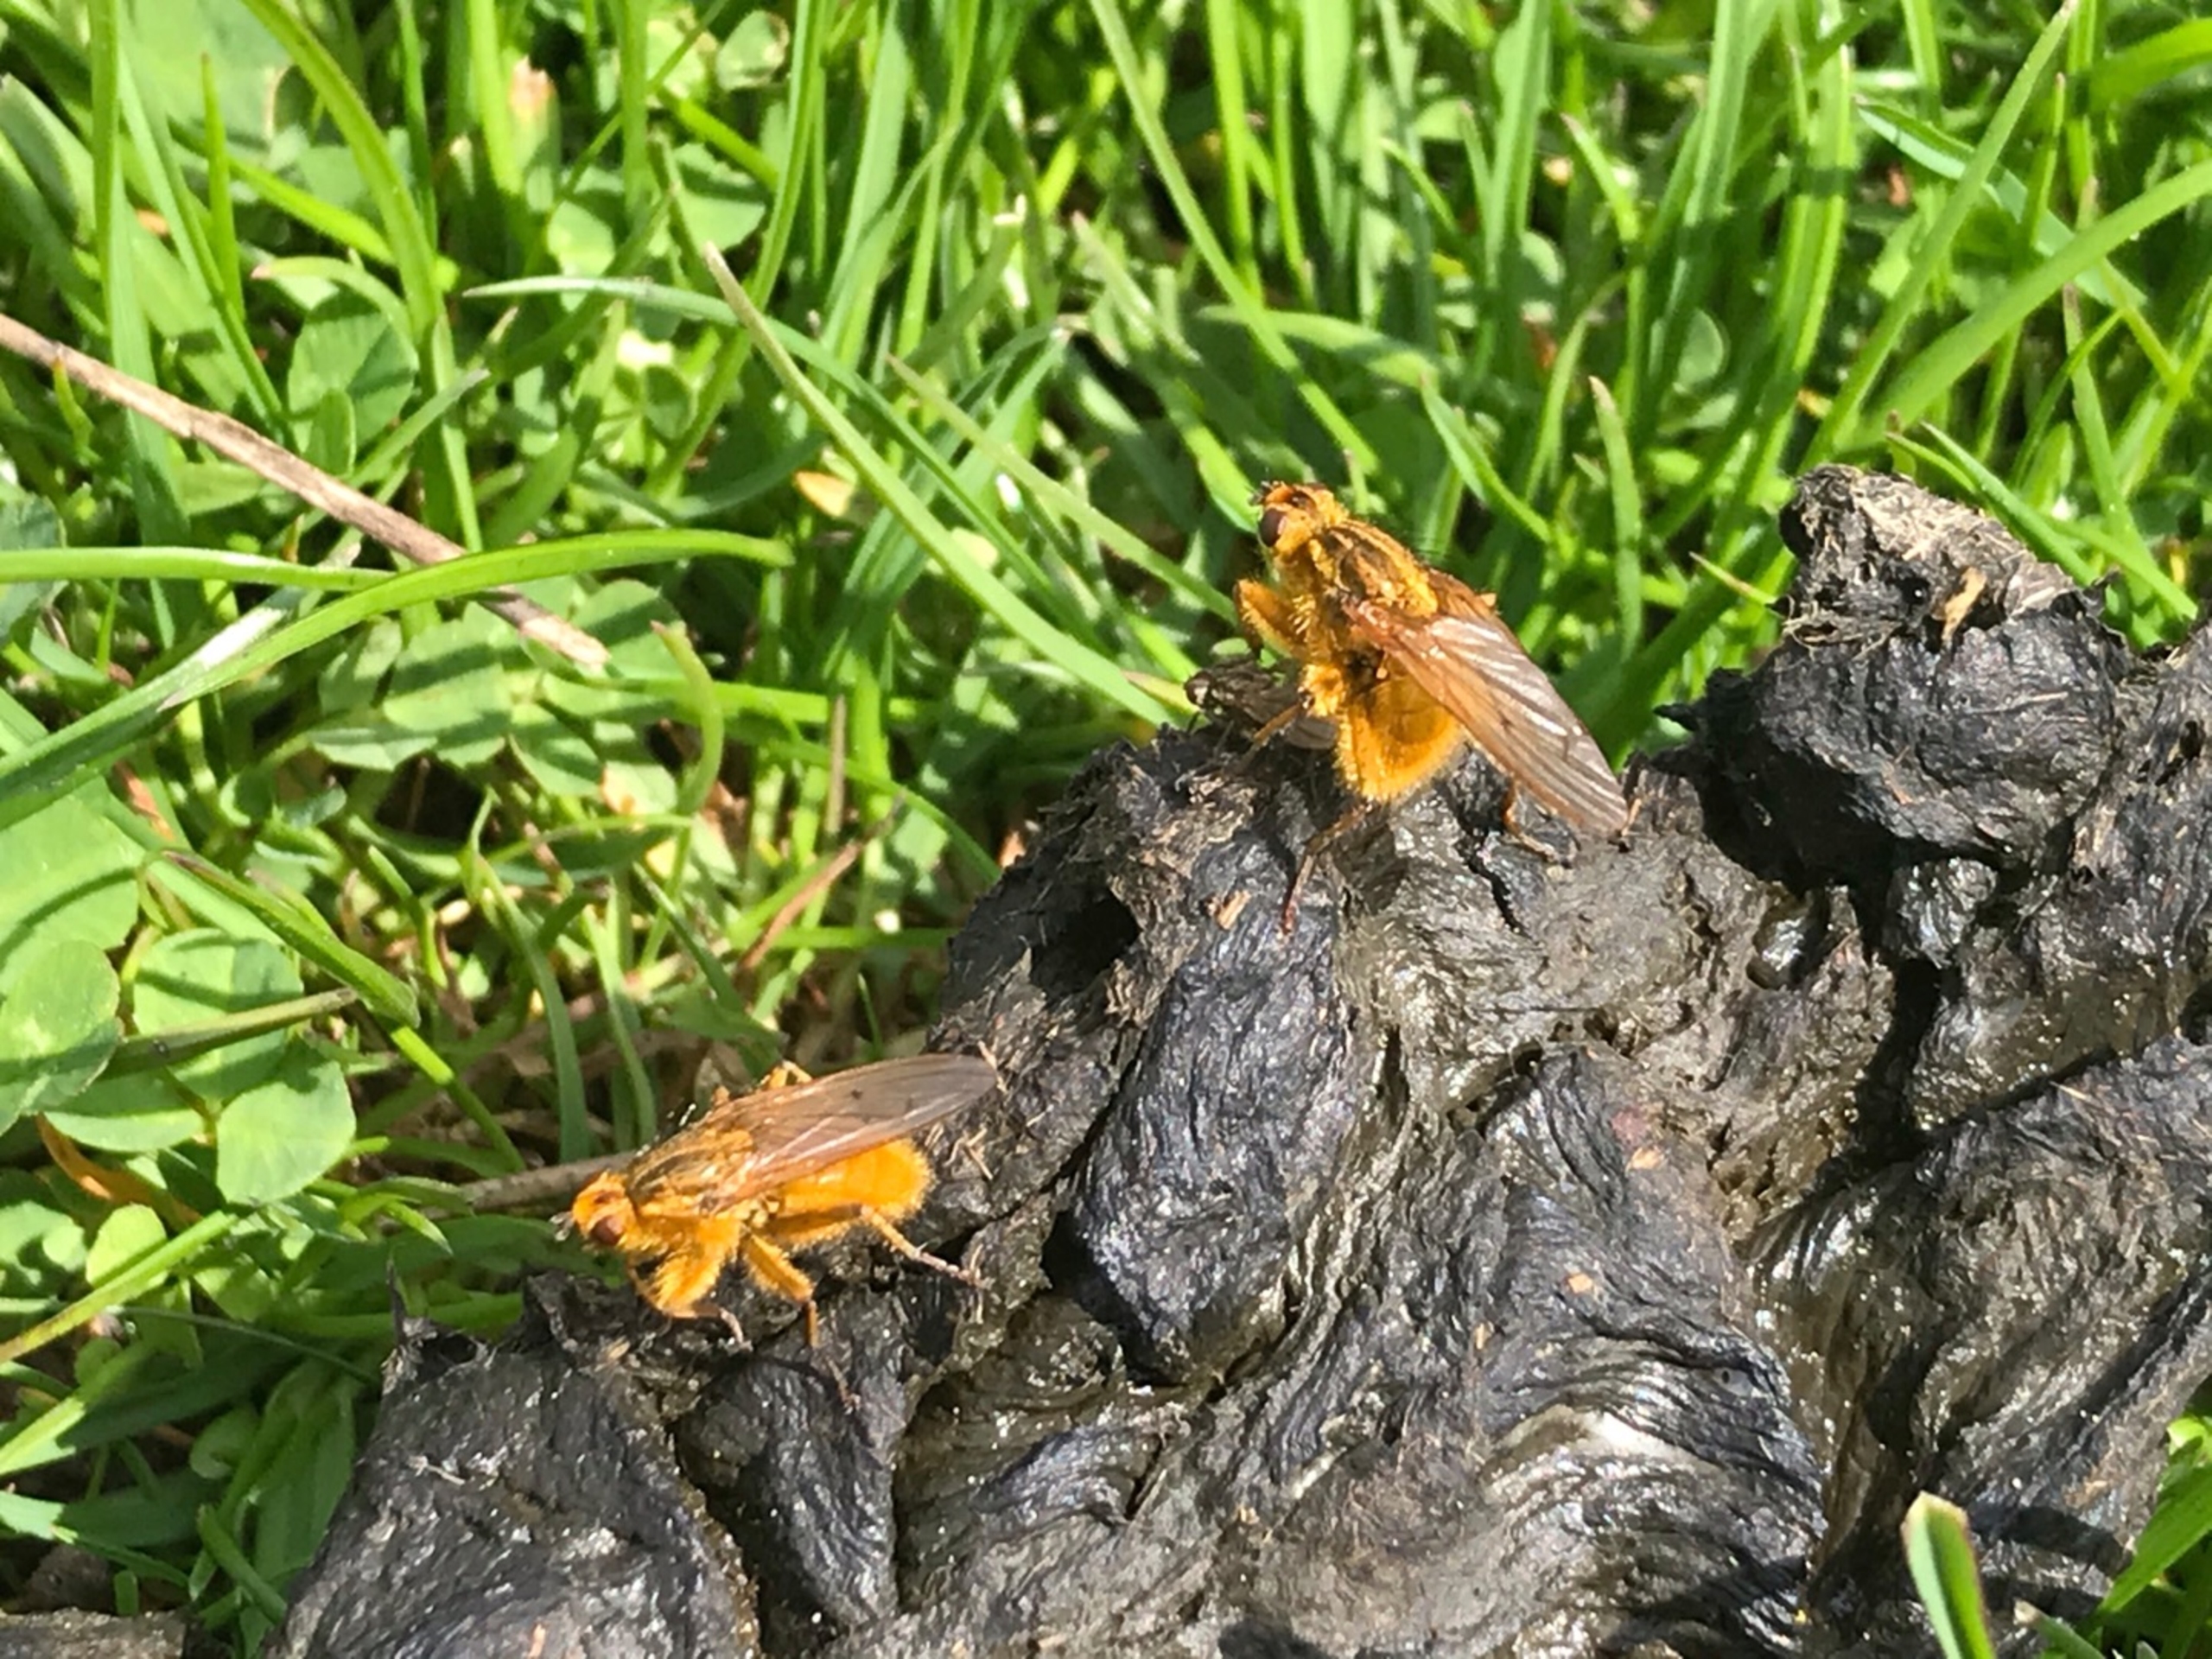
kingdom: Animalia
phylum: Arthropoda
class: Insecta
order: Diptera
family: Scathophagidae
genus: Scathophaga
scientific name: Scathophaga stercoraria
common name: Almindelig gødningsflue
